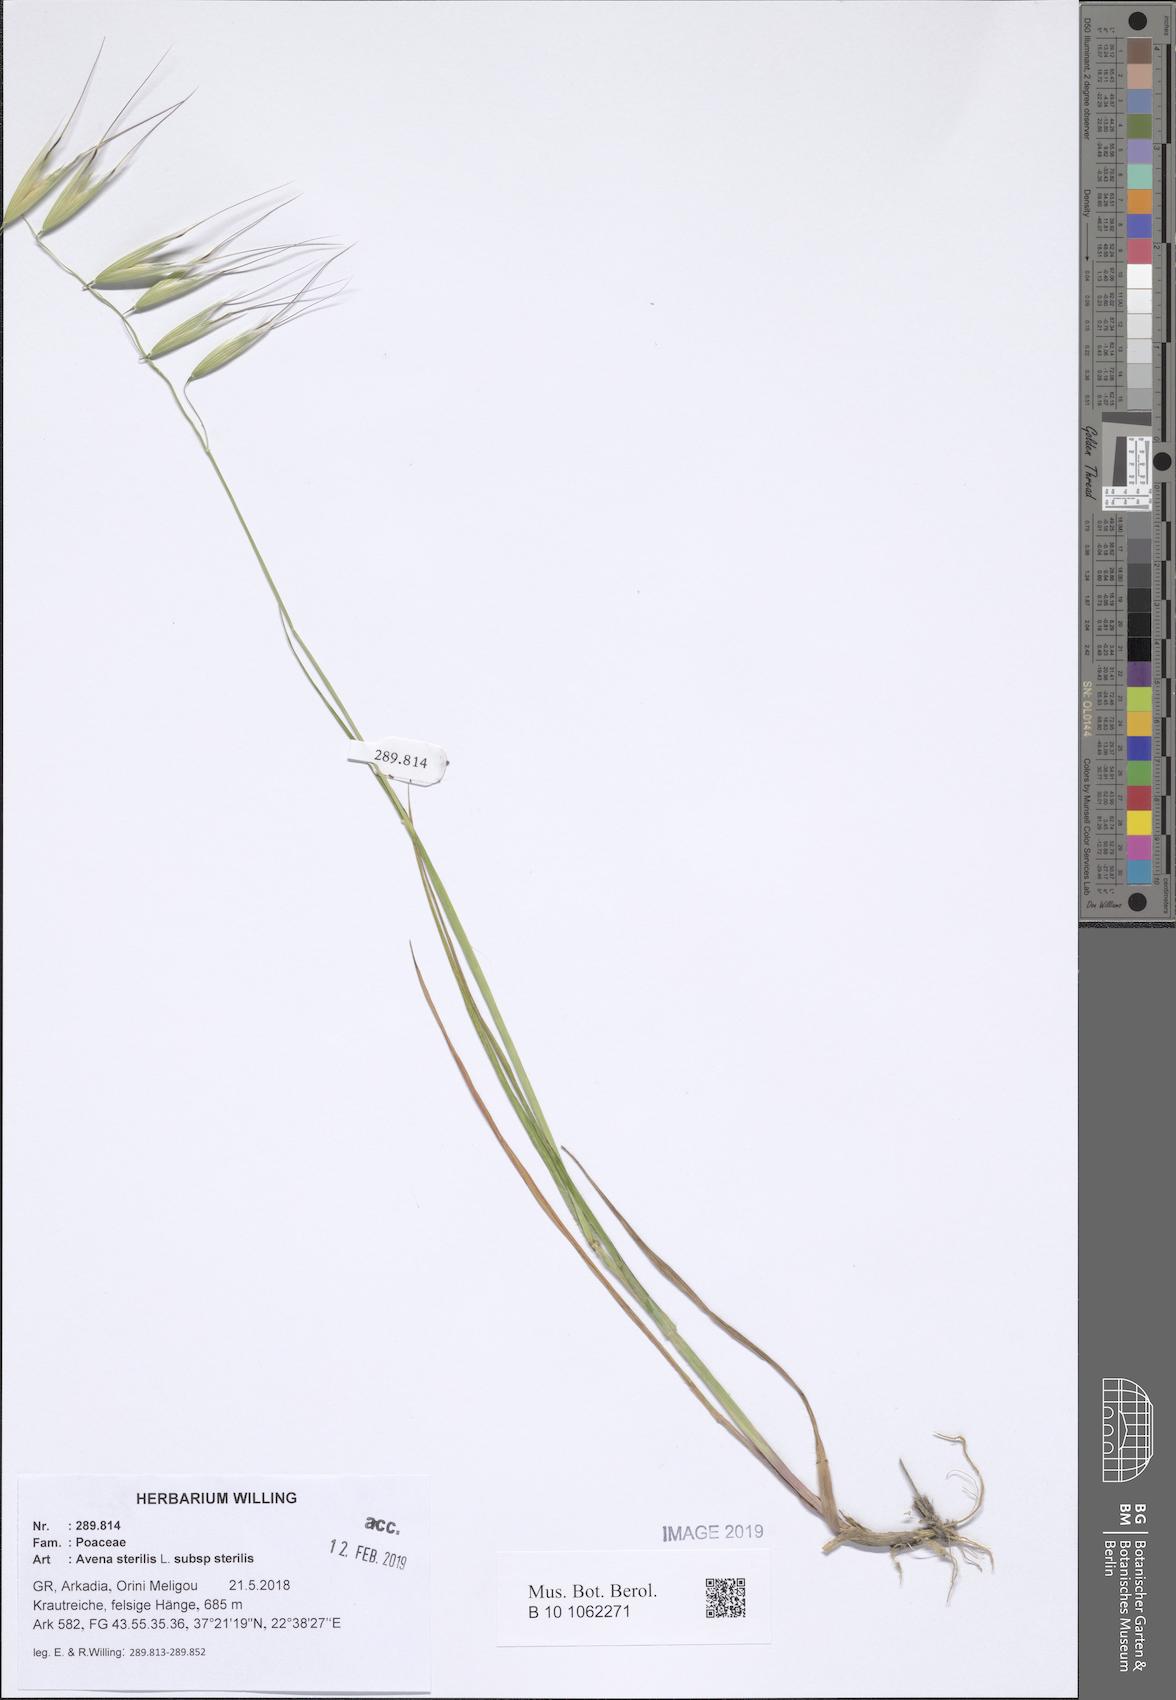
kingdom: Plantae
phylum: Tracheophyta
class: Liliopsida
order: Poales
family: Poaceae
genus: Avena
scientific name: Avena sterilis
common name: Animated oat
